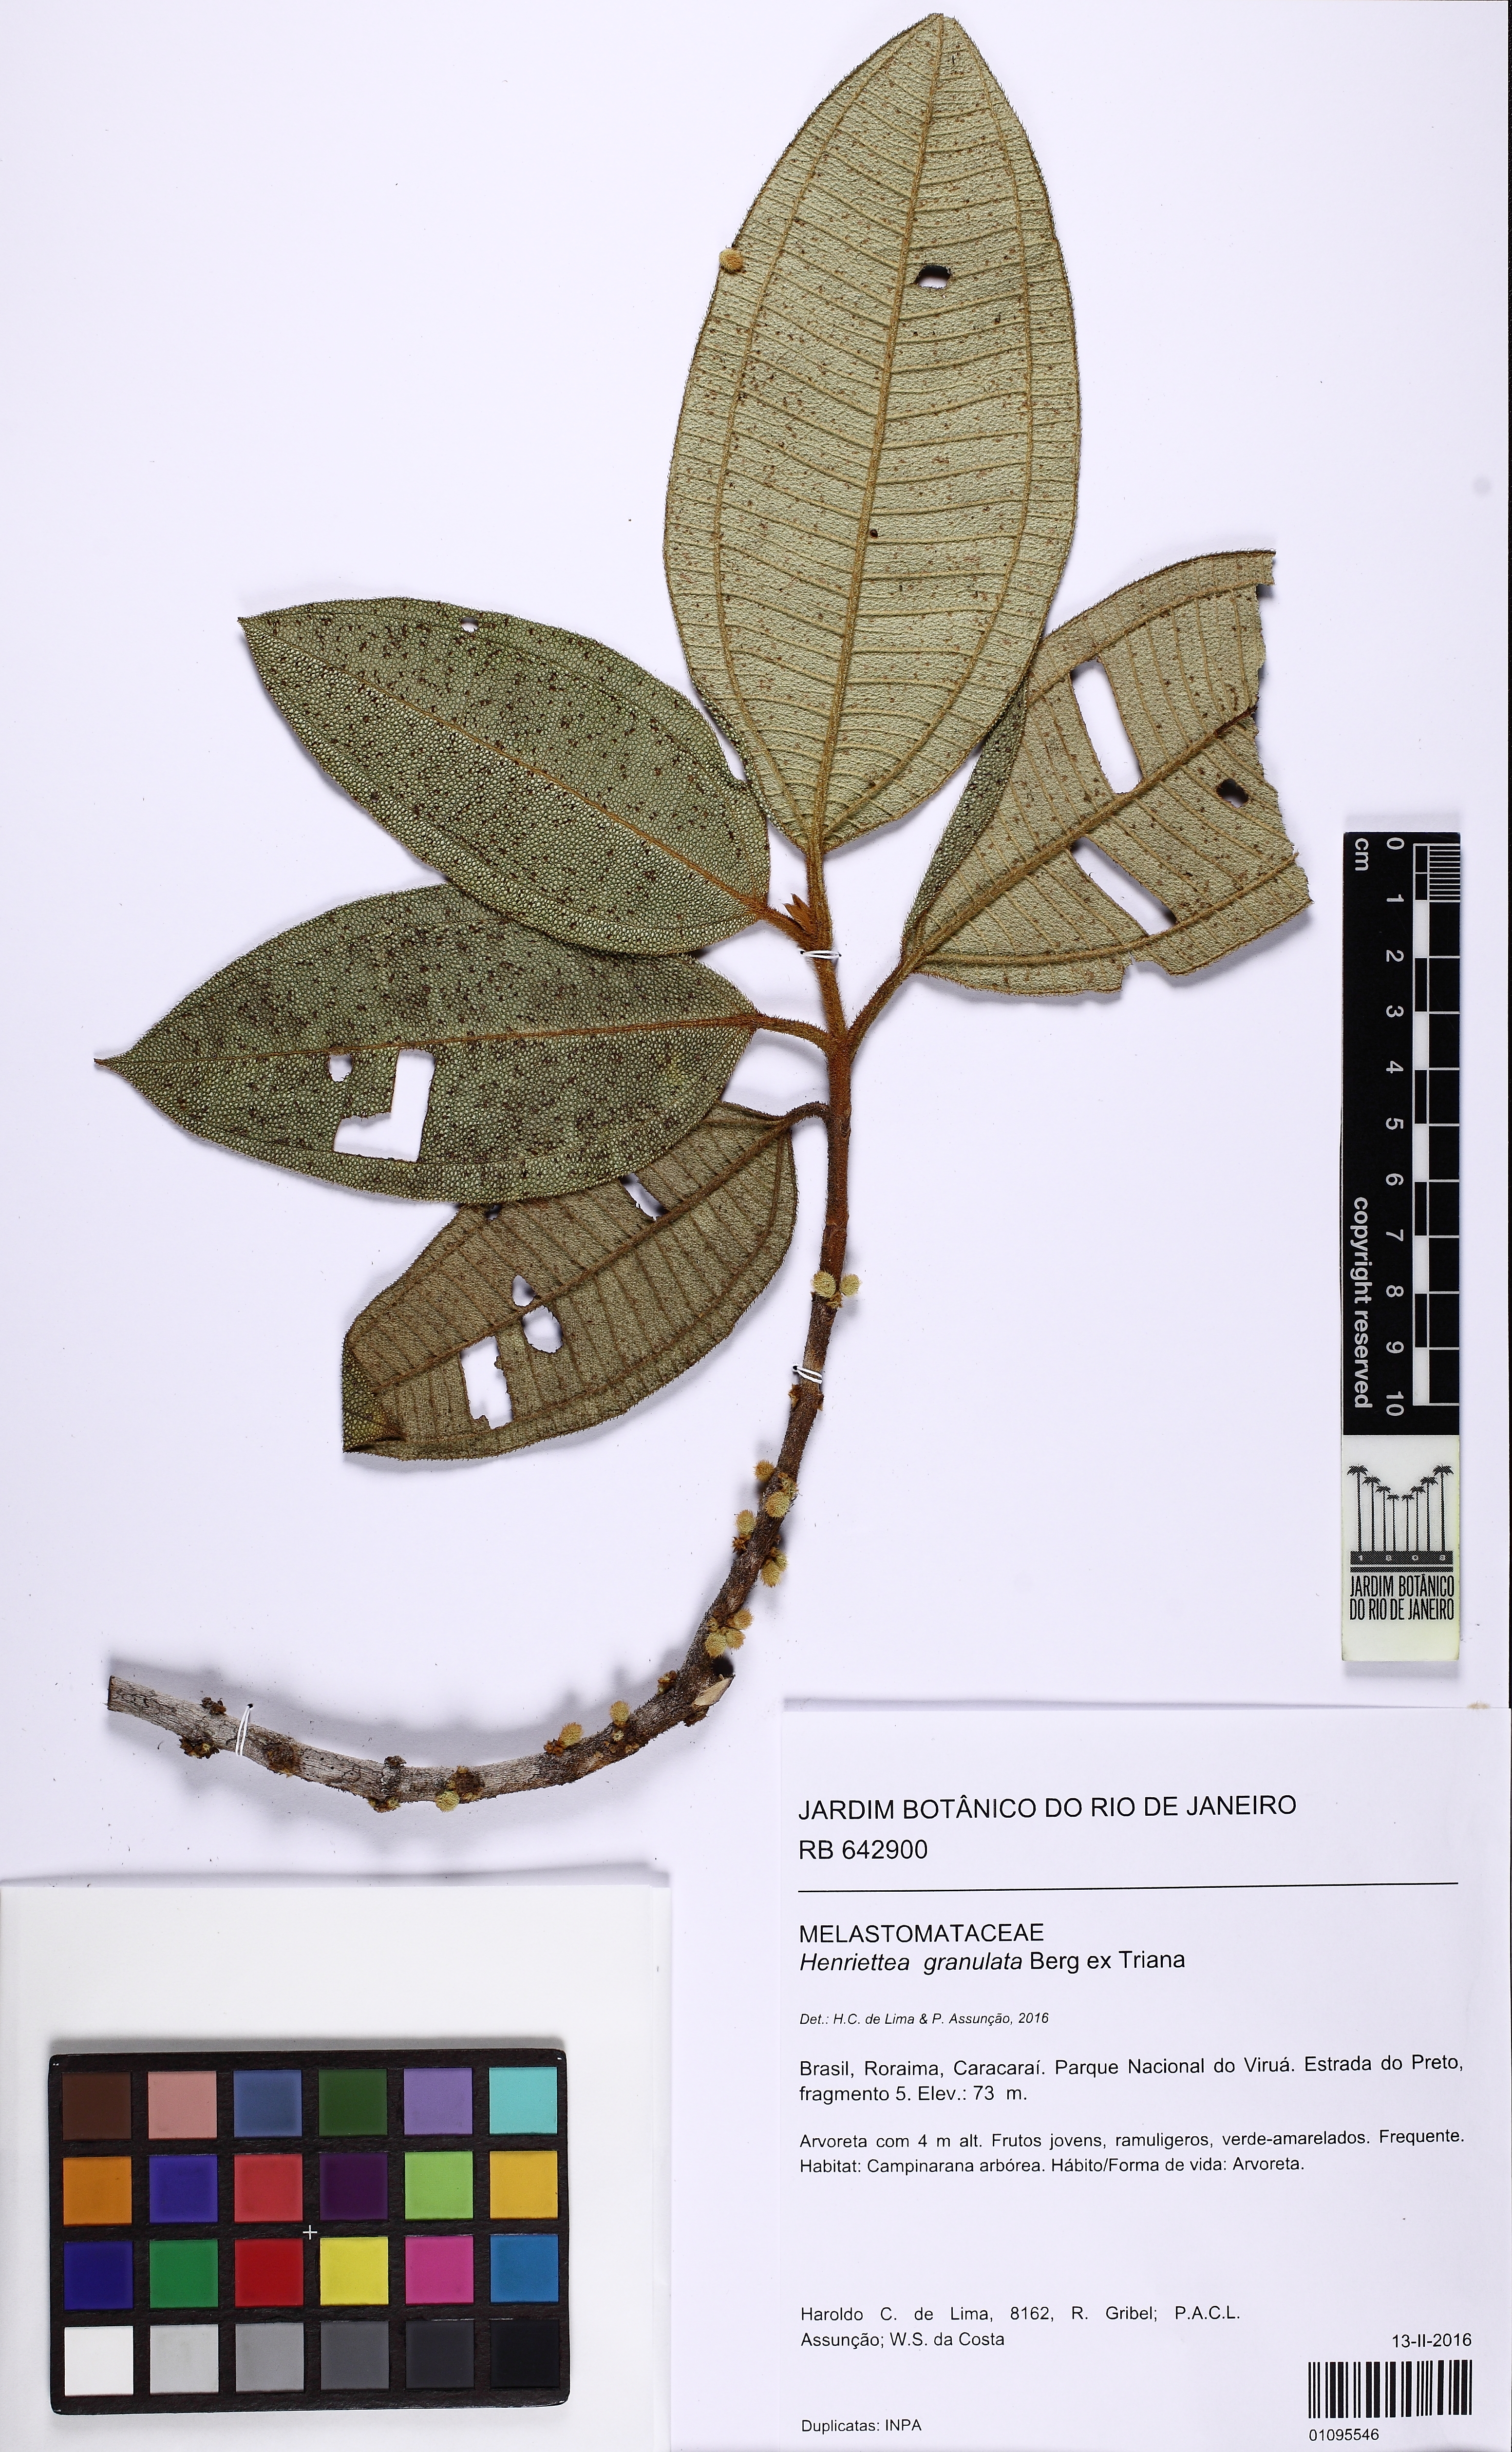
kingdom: Plantae
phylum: Tracheophyta
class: Magnoliopsida
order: Myrtales
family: Melastomataceae
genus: Henriettea
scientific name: Henriettea granulata
